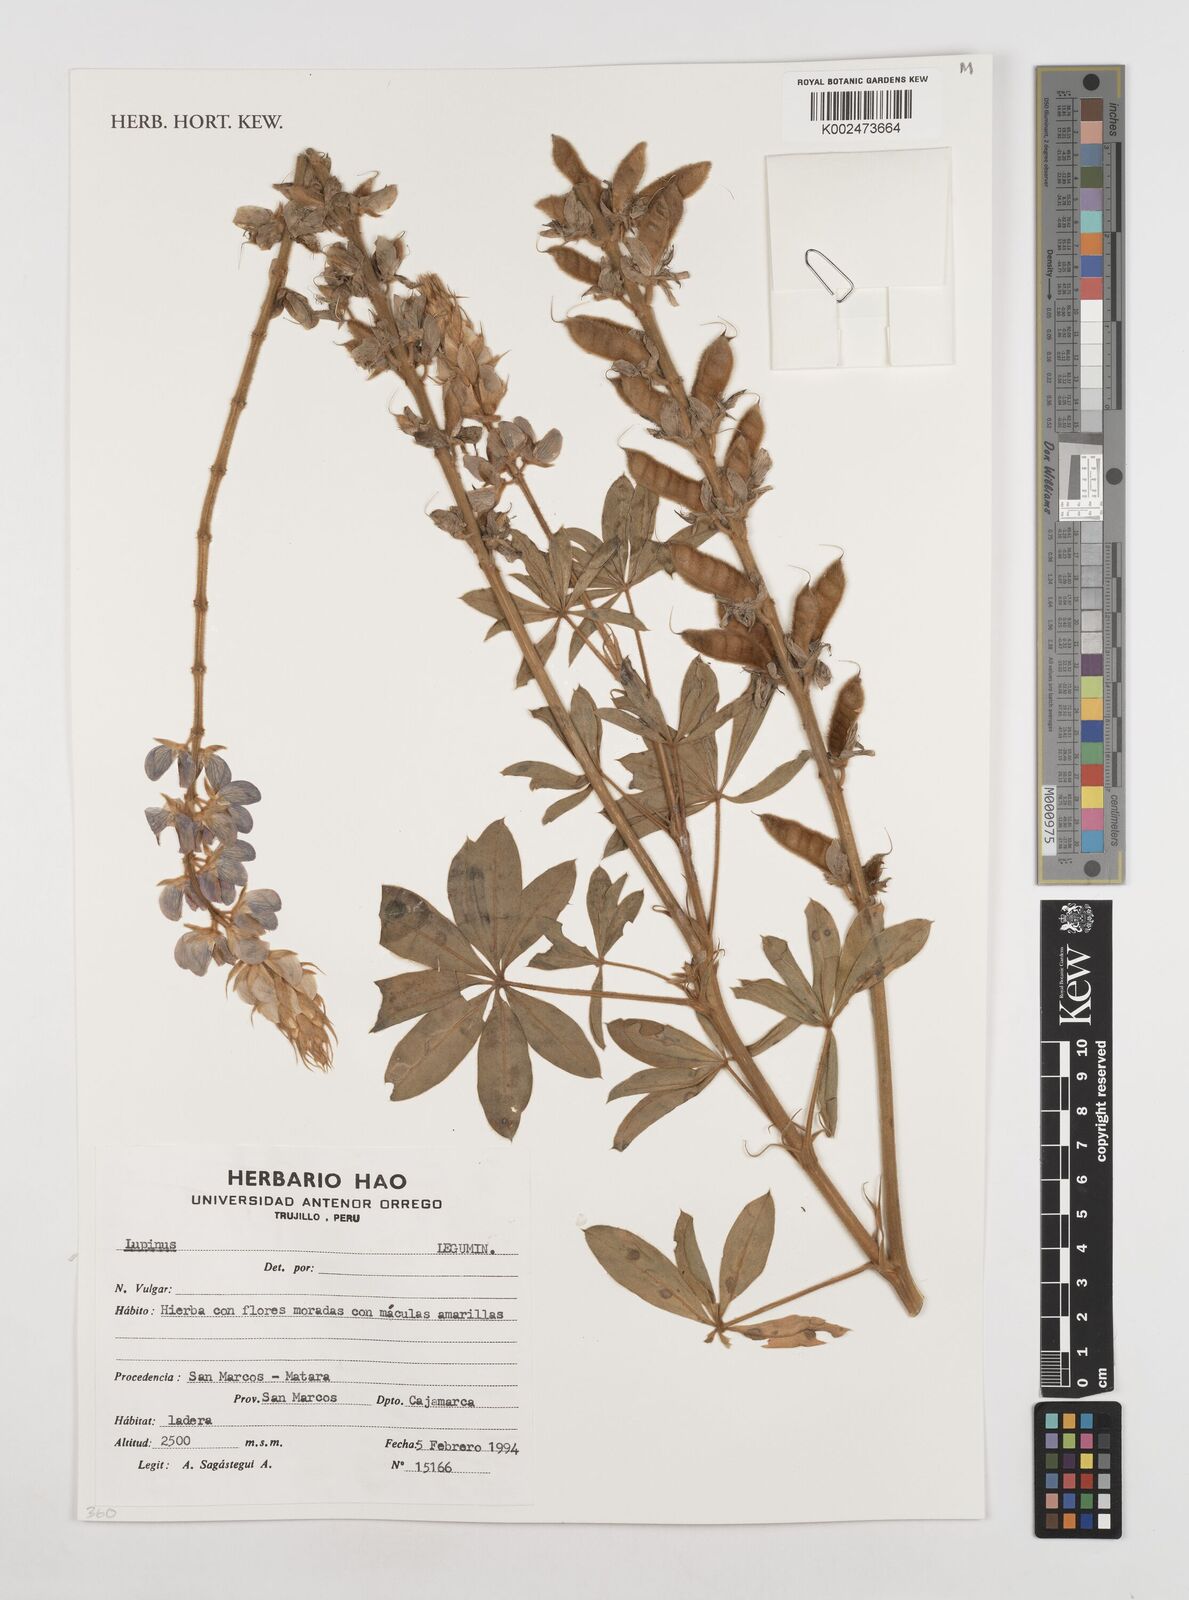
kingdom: Plantae
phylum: Tracheophyta
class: Magnoliopsida
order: Fabales
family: Fabaceae
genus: Lupinus
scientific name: Lupinus
